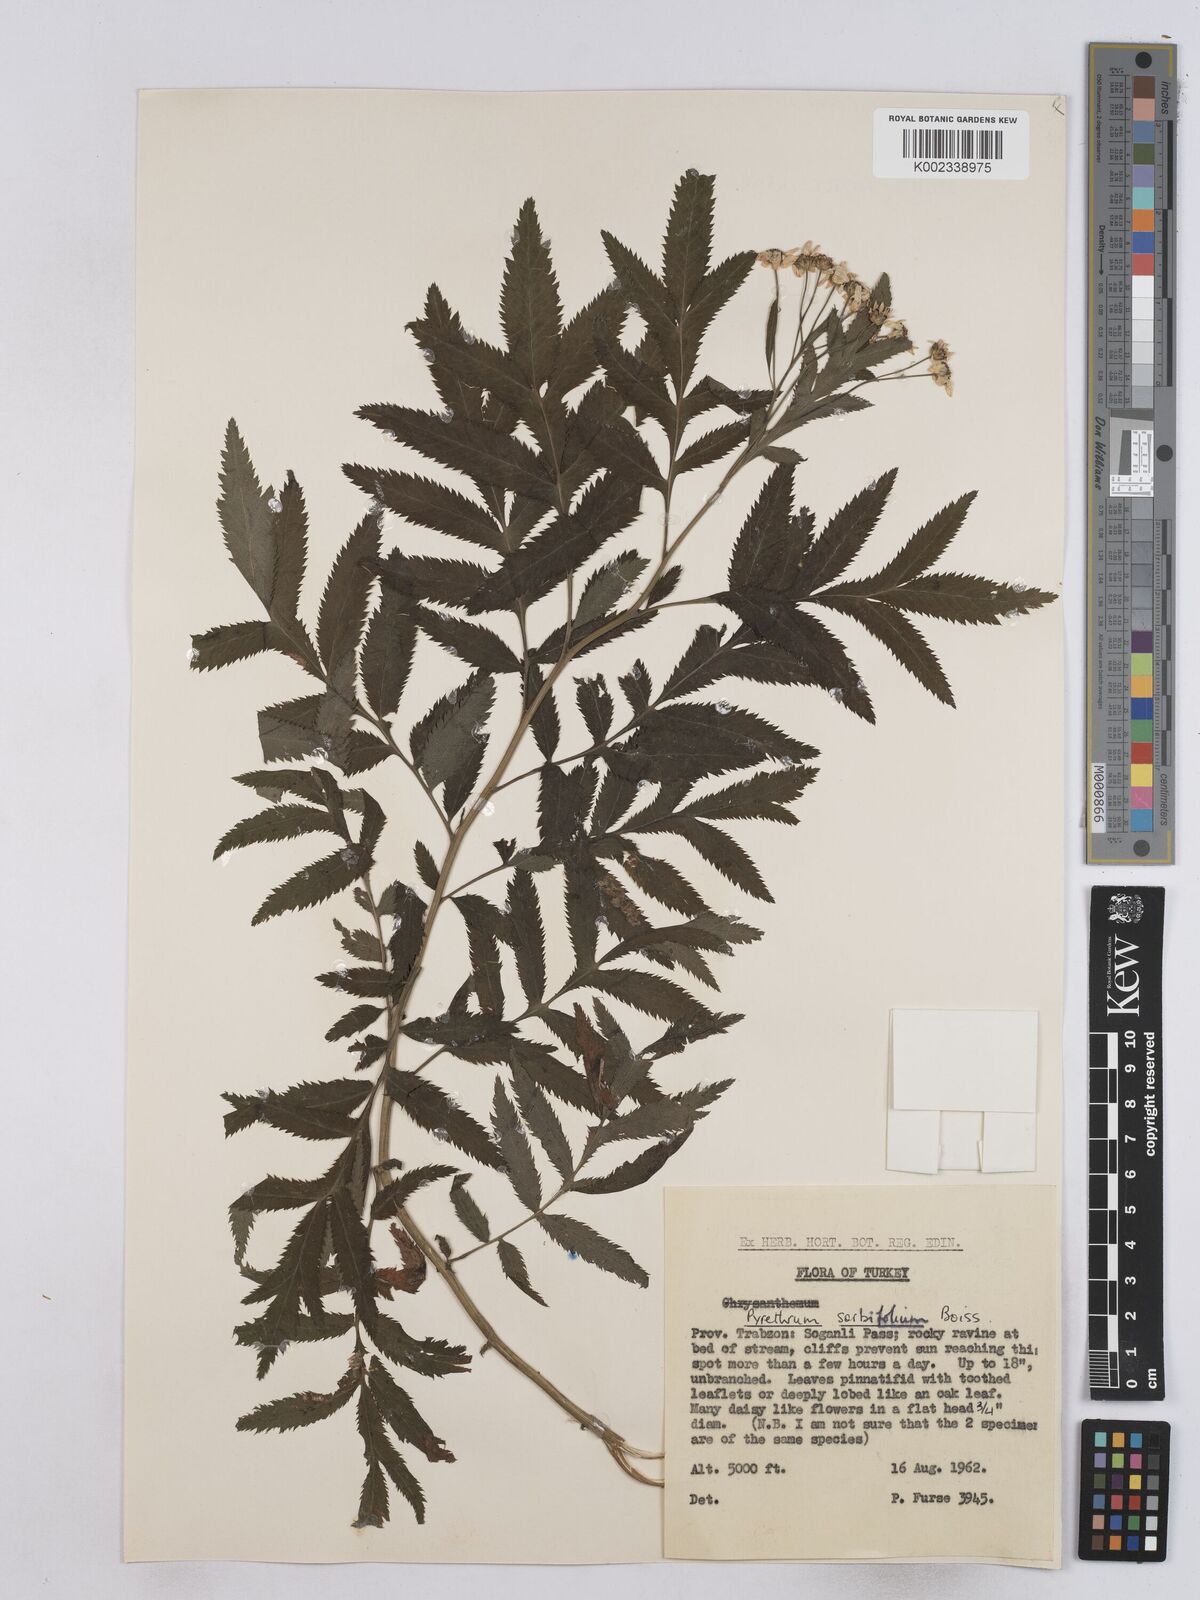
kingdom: Plantae
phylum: Tracheophyta
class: Magnoliopsida
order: Asterales
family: Asteraceae
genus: Tanacetum
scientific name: Tanacetum sorbifolium
